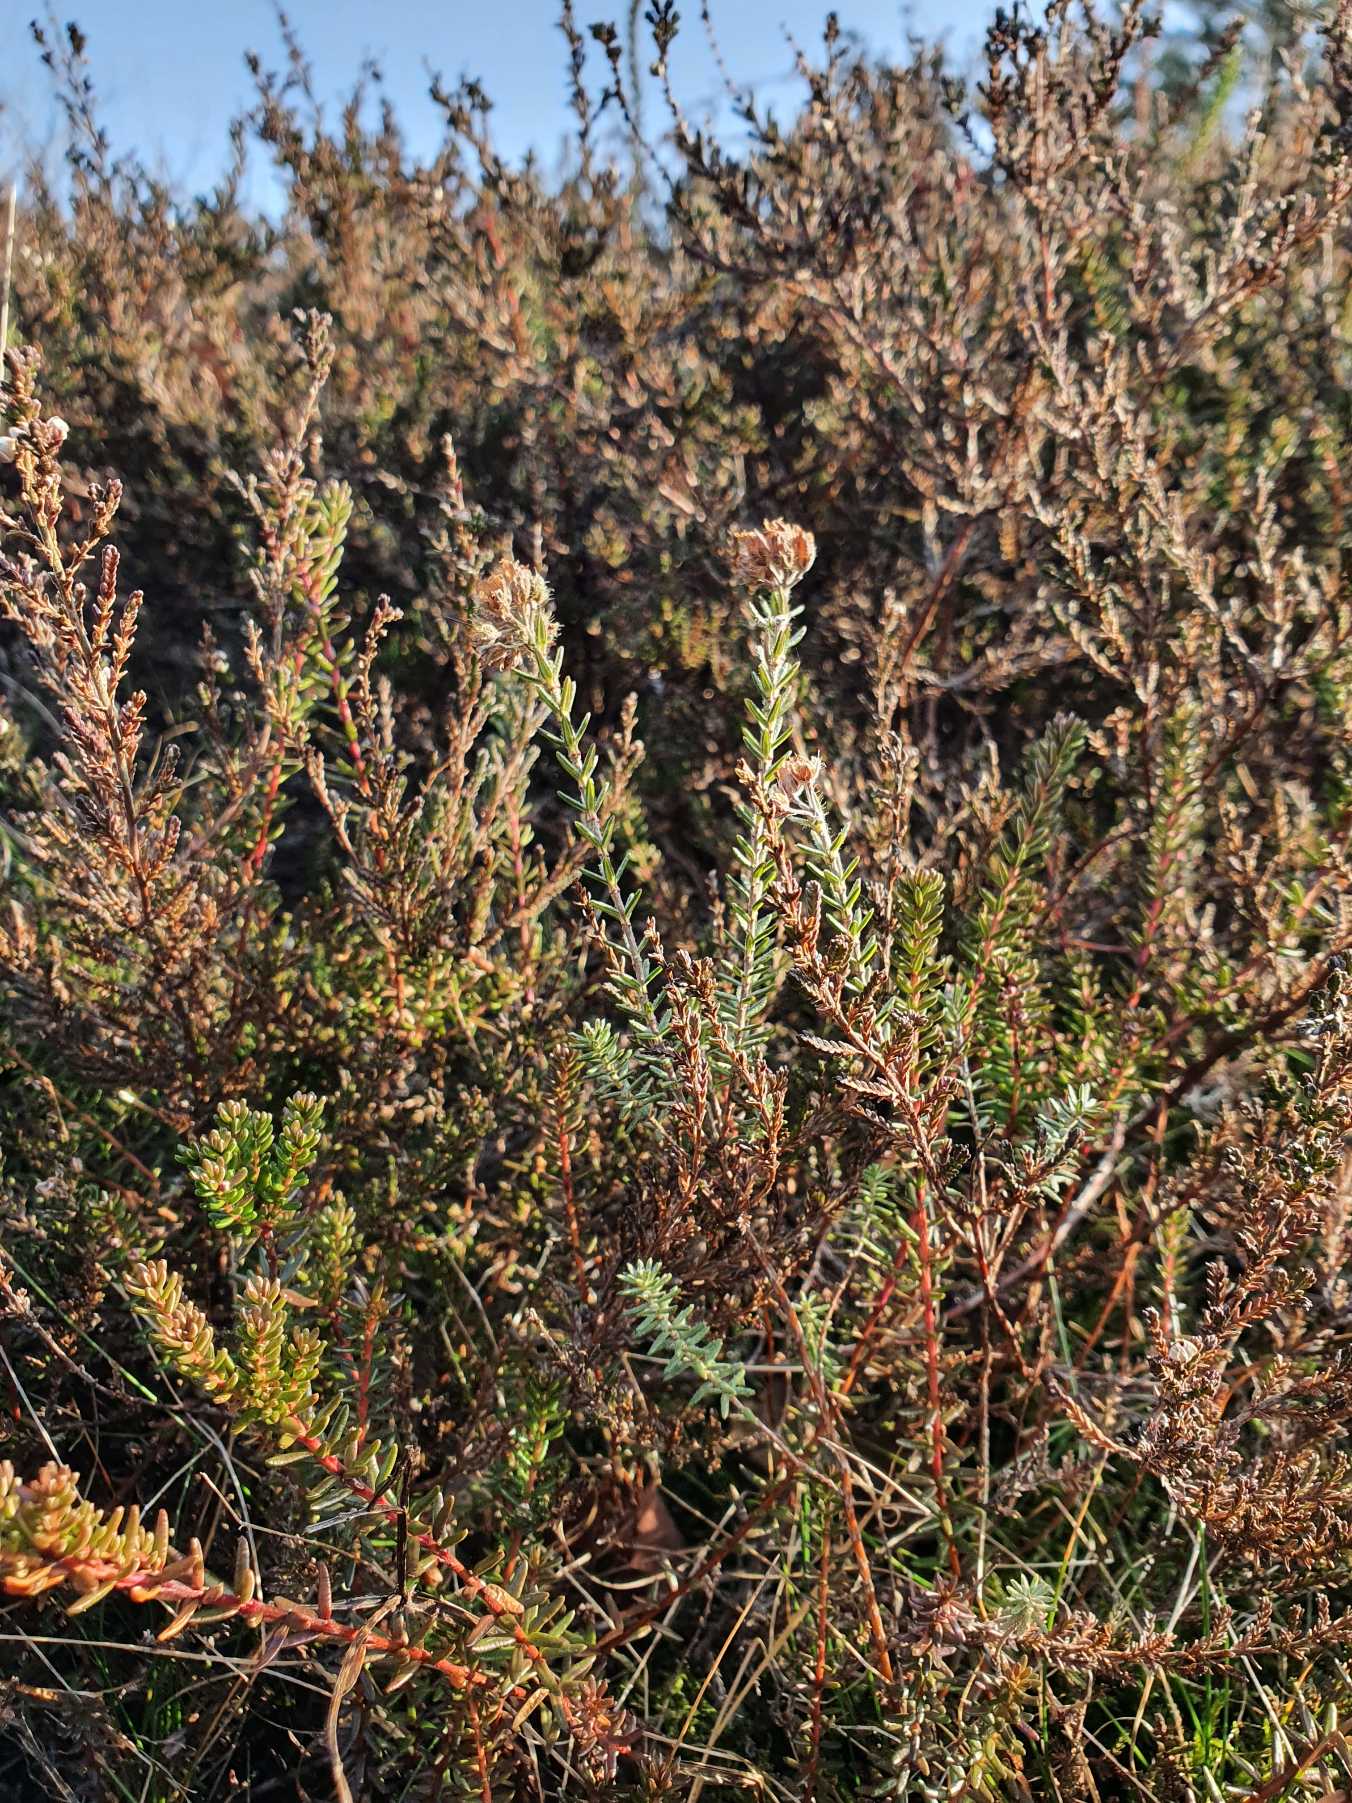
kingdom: Plantae
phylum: Tracheophyta
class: Magnoliopsida
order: Ericales
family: Ericaceae
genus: Erica
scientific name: Erica tetralix
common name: Klokkelyng
